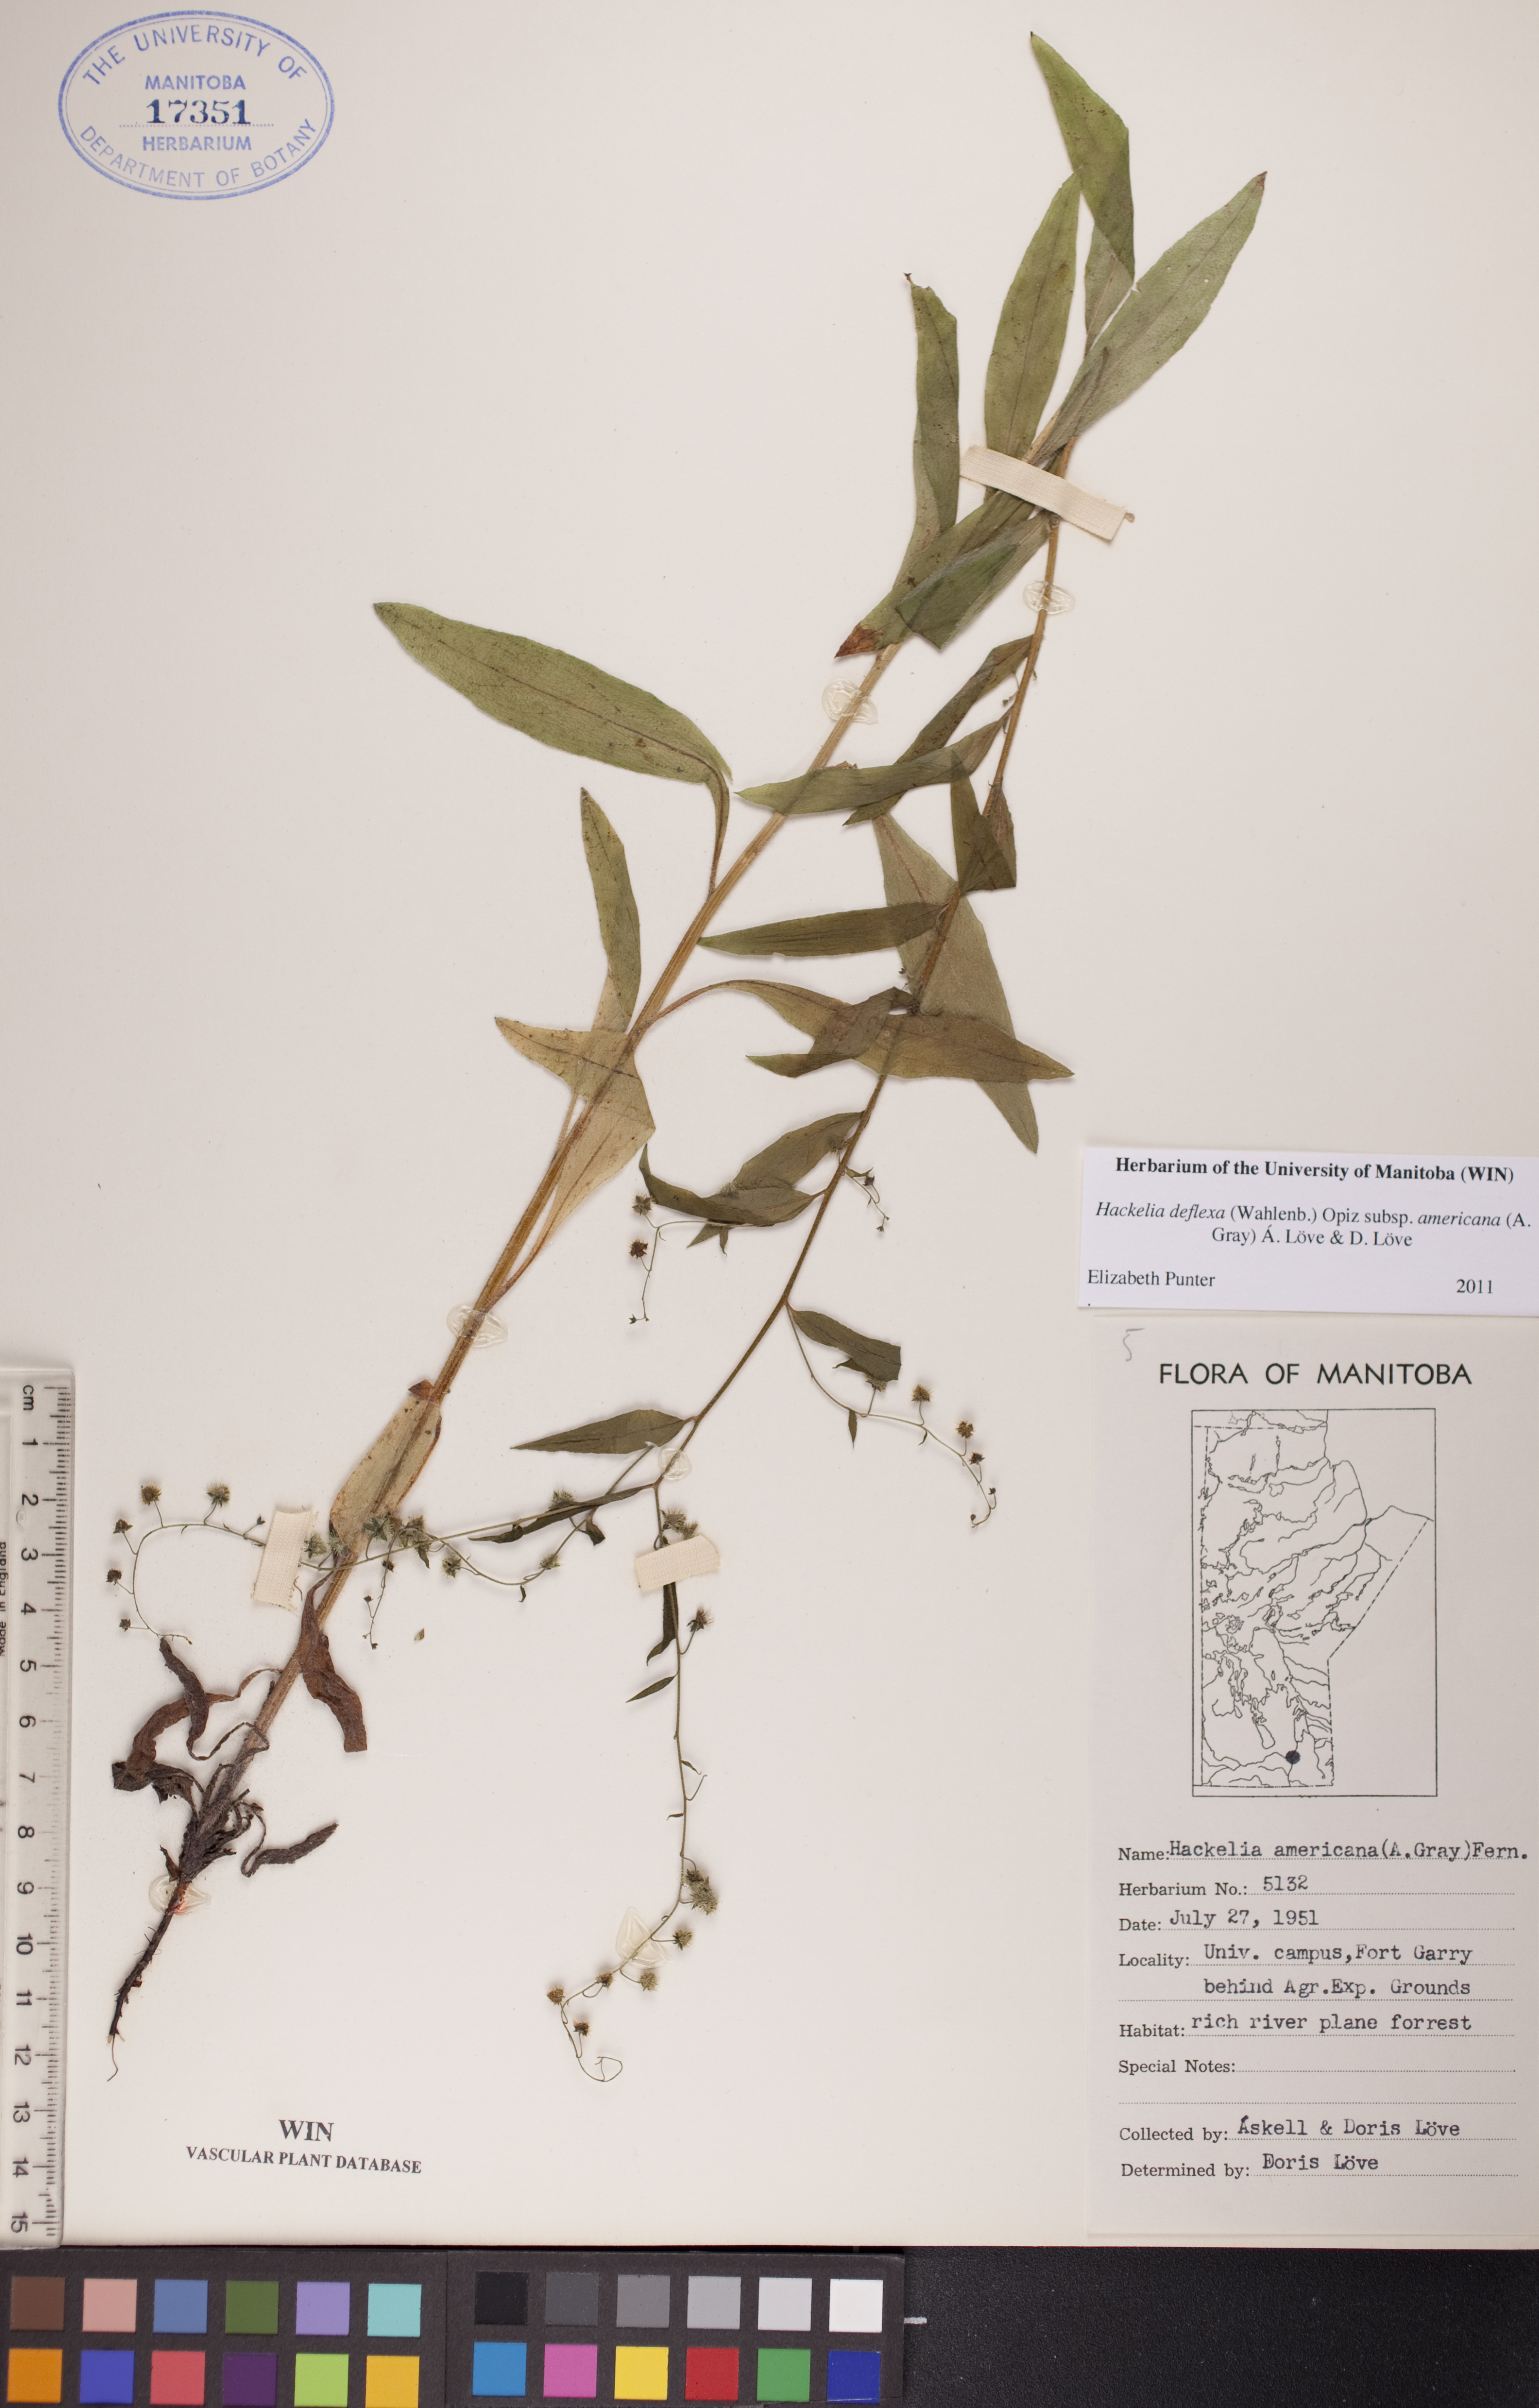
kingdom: Plantae
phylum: Tracheophyta
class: Magnoliopsida
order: Boraginales
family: Boraginaceae
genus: Hackelia
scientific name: Hackelia deflexa
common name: Nodding stickseed
